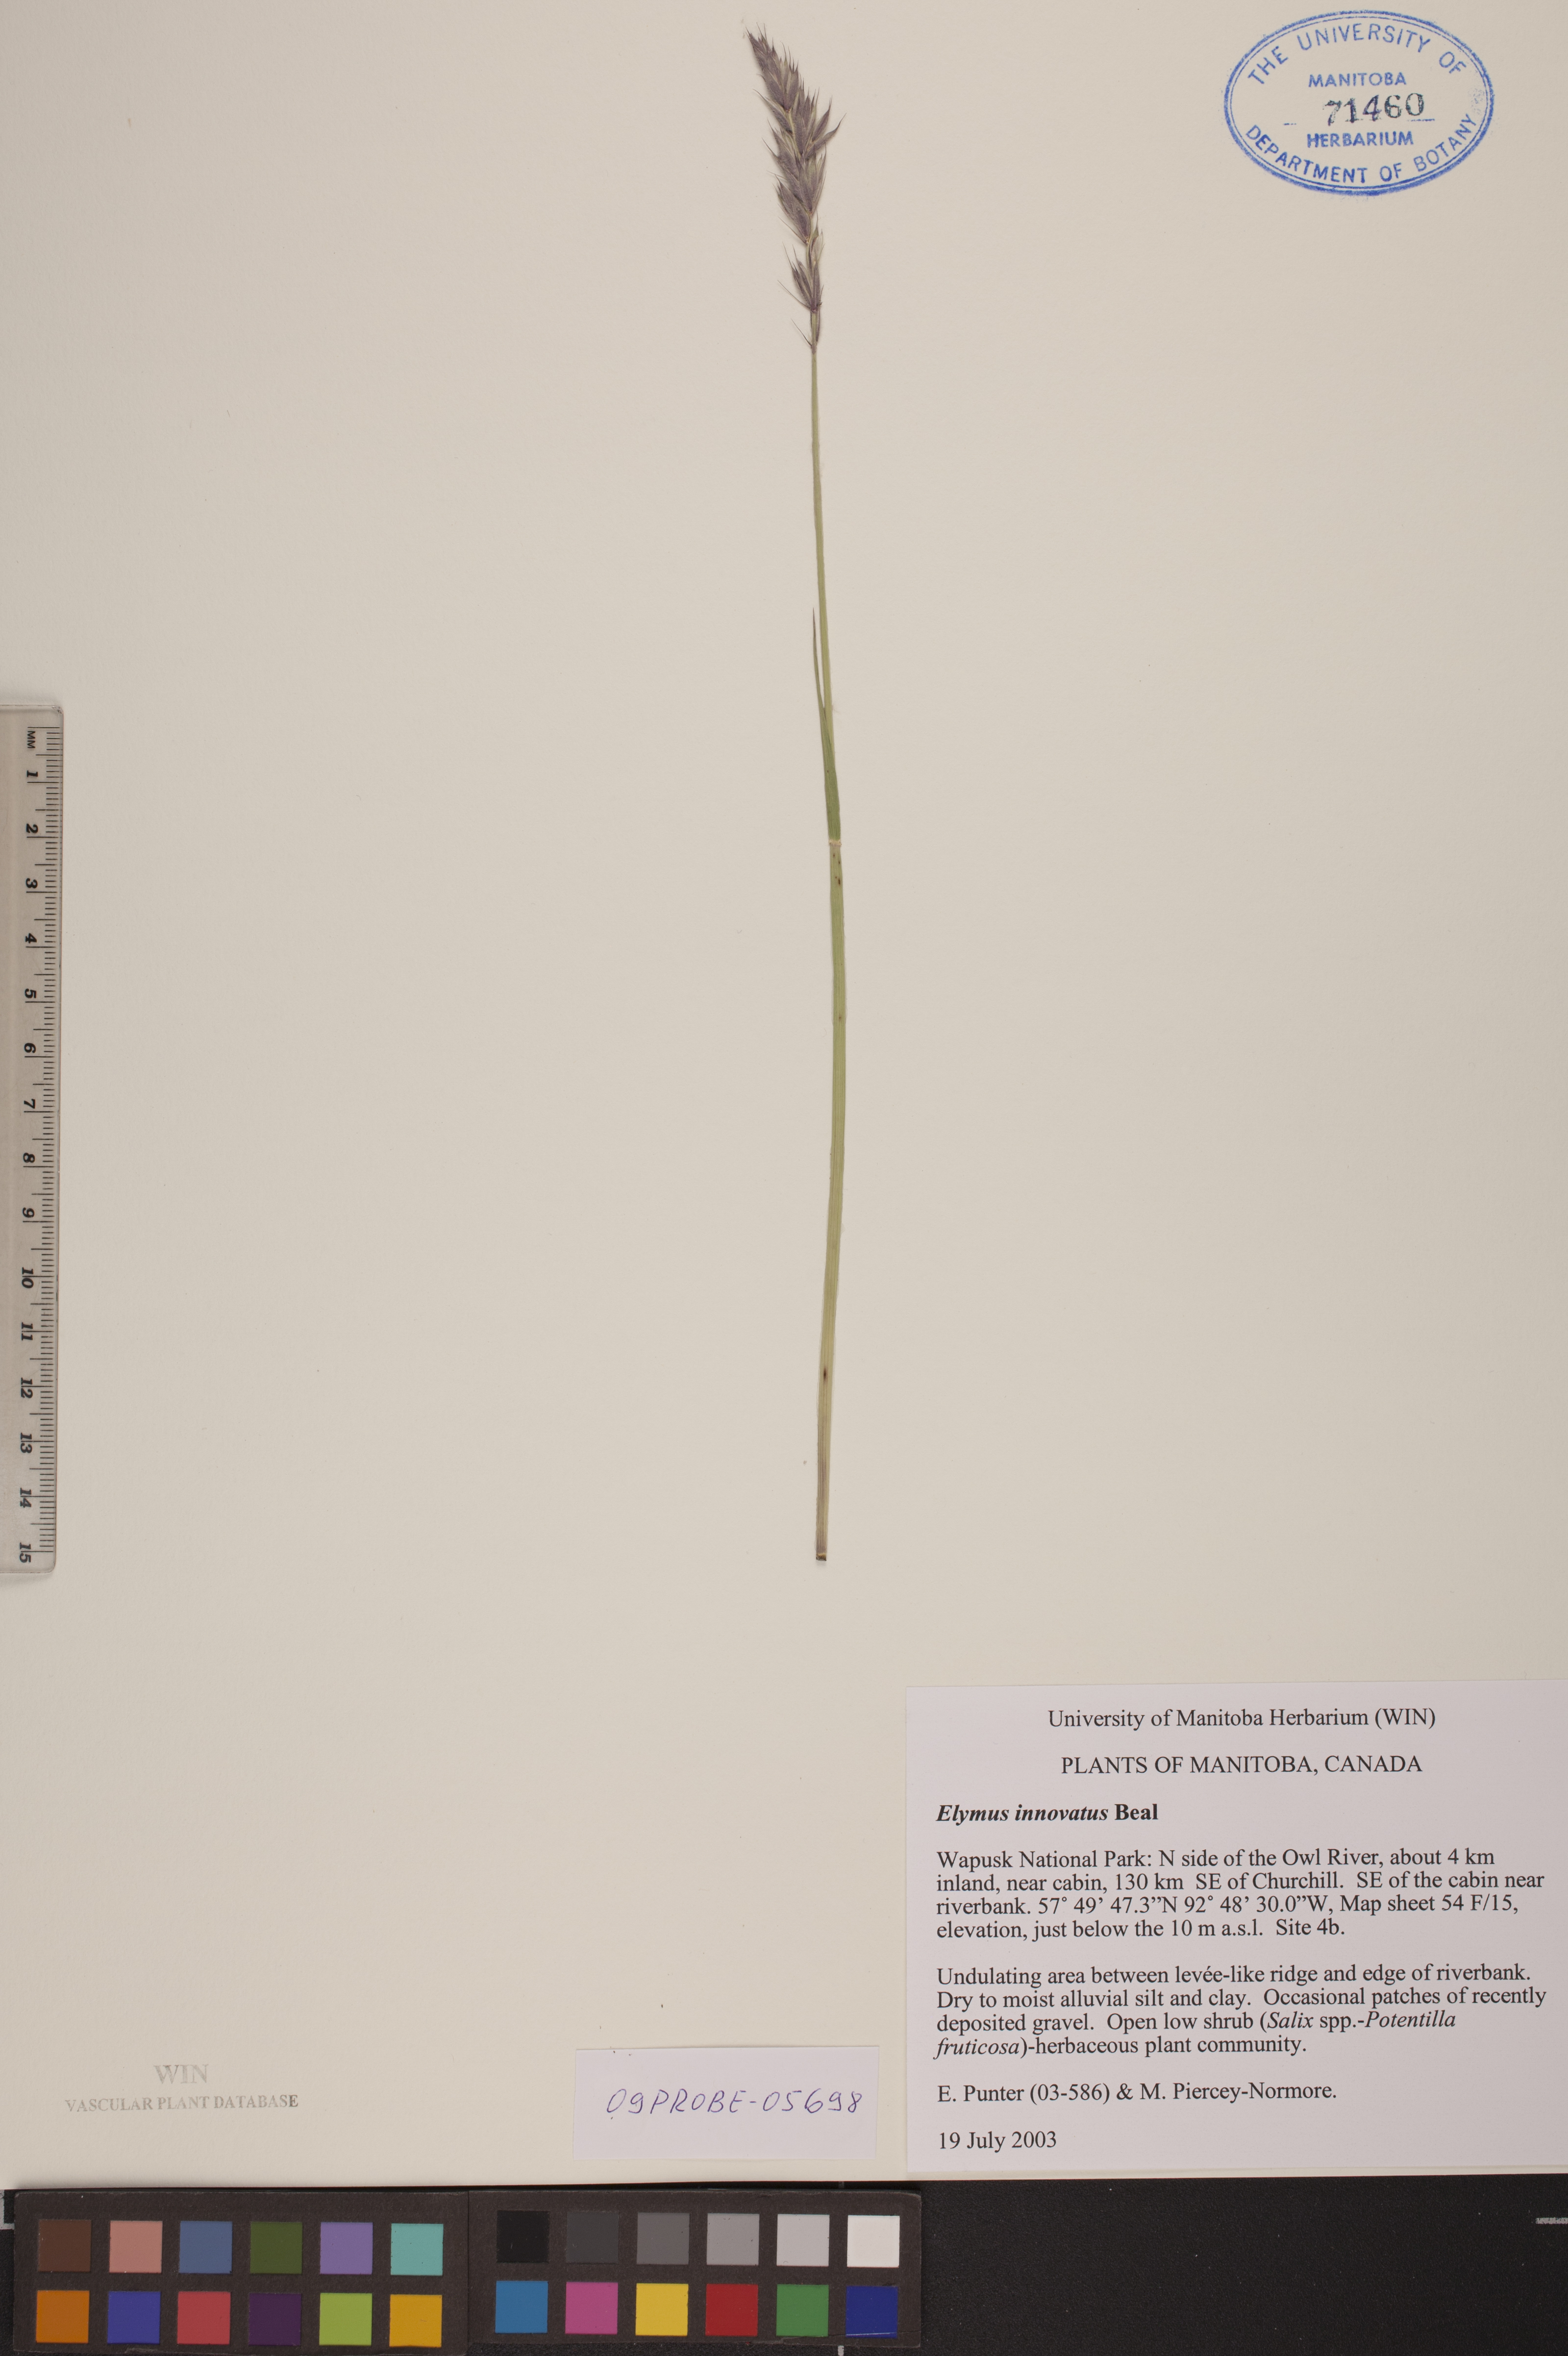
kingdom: Plantae
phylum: Tracheophyta
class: Liliopsida
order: Poales
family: Poaceae
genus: Leymus
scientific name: Leymus innovatus
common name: Boreal wild rye
